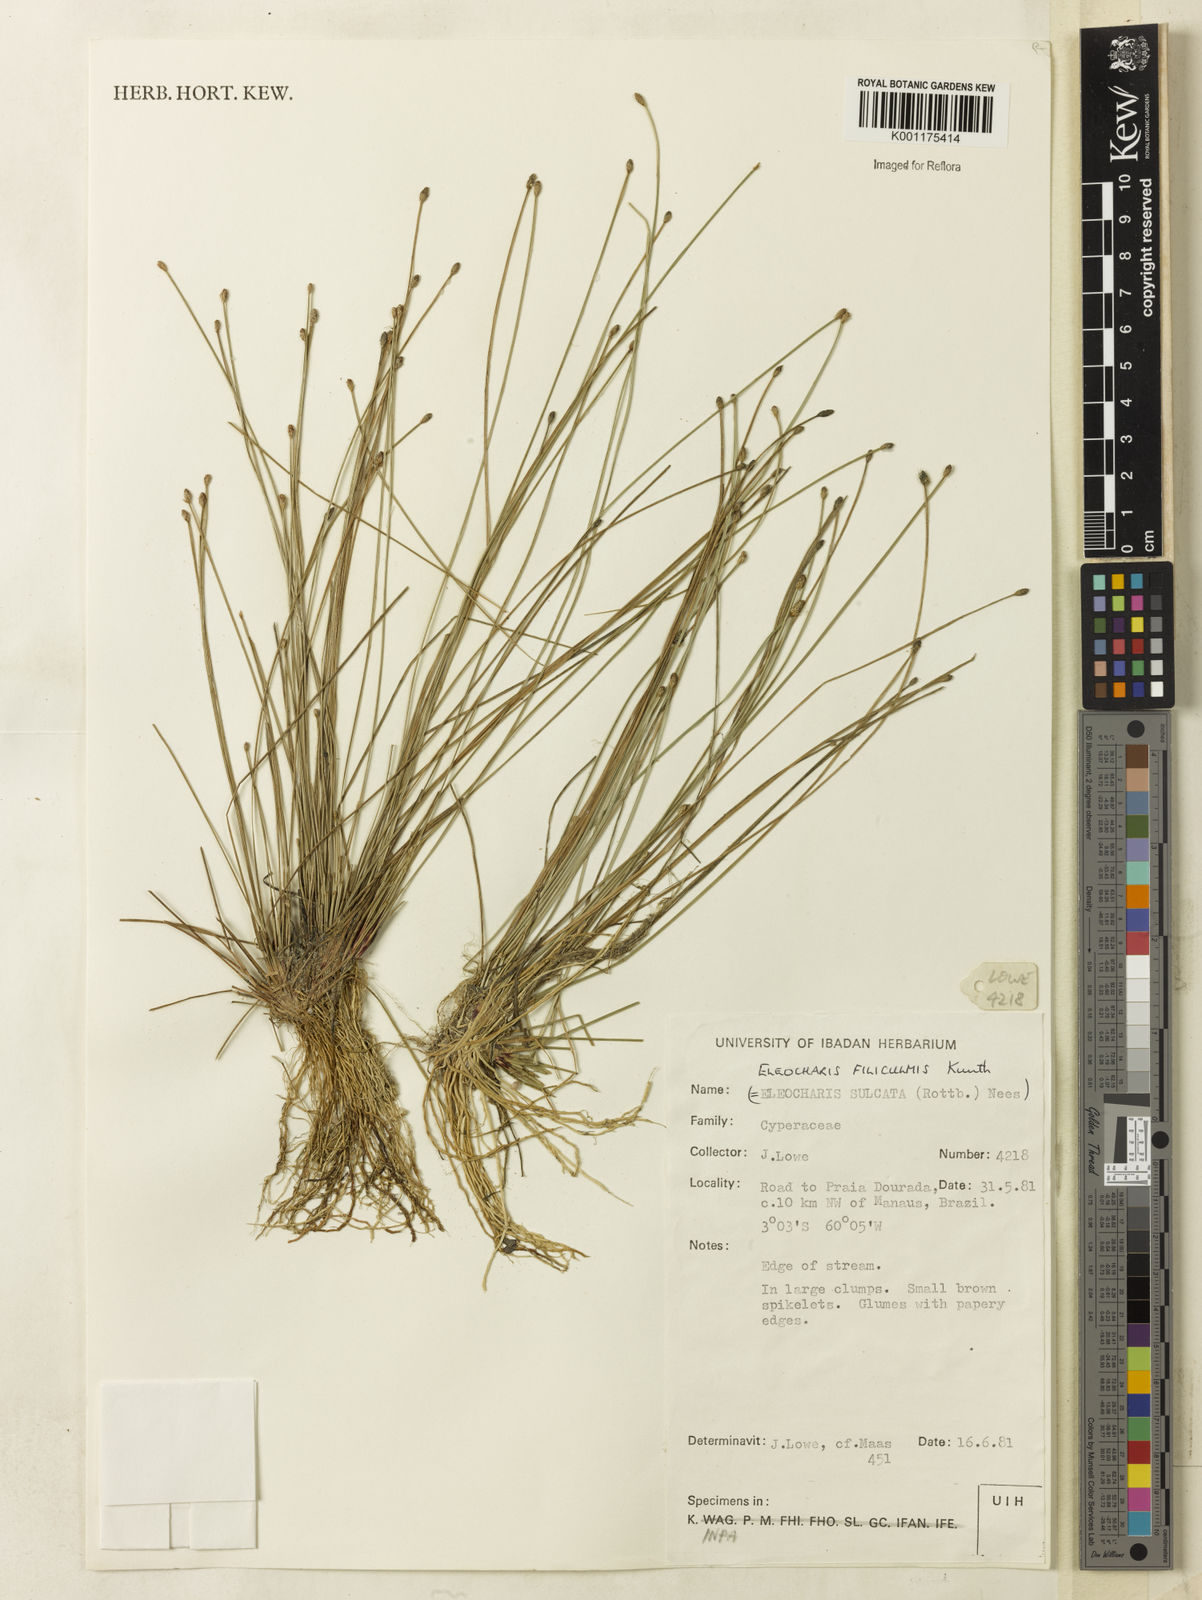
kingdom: Plantae
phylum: Tracheophyta
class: Liliopsida
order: Poales
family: Cyperaceae
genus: Eleocharis
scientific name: Eleocharis filiculmis
